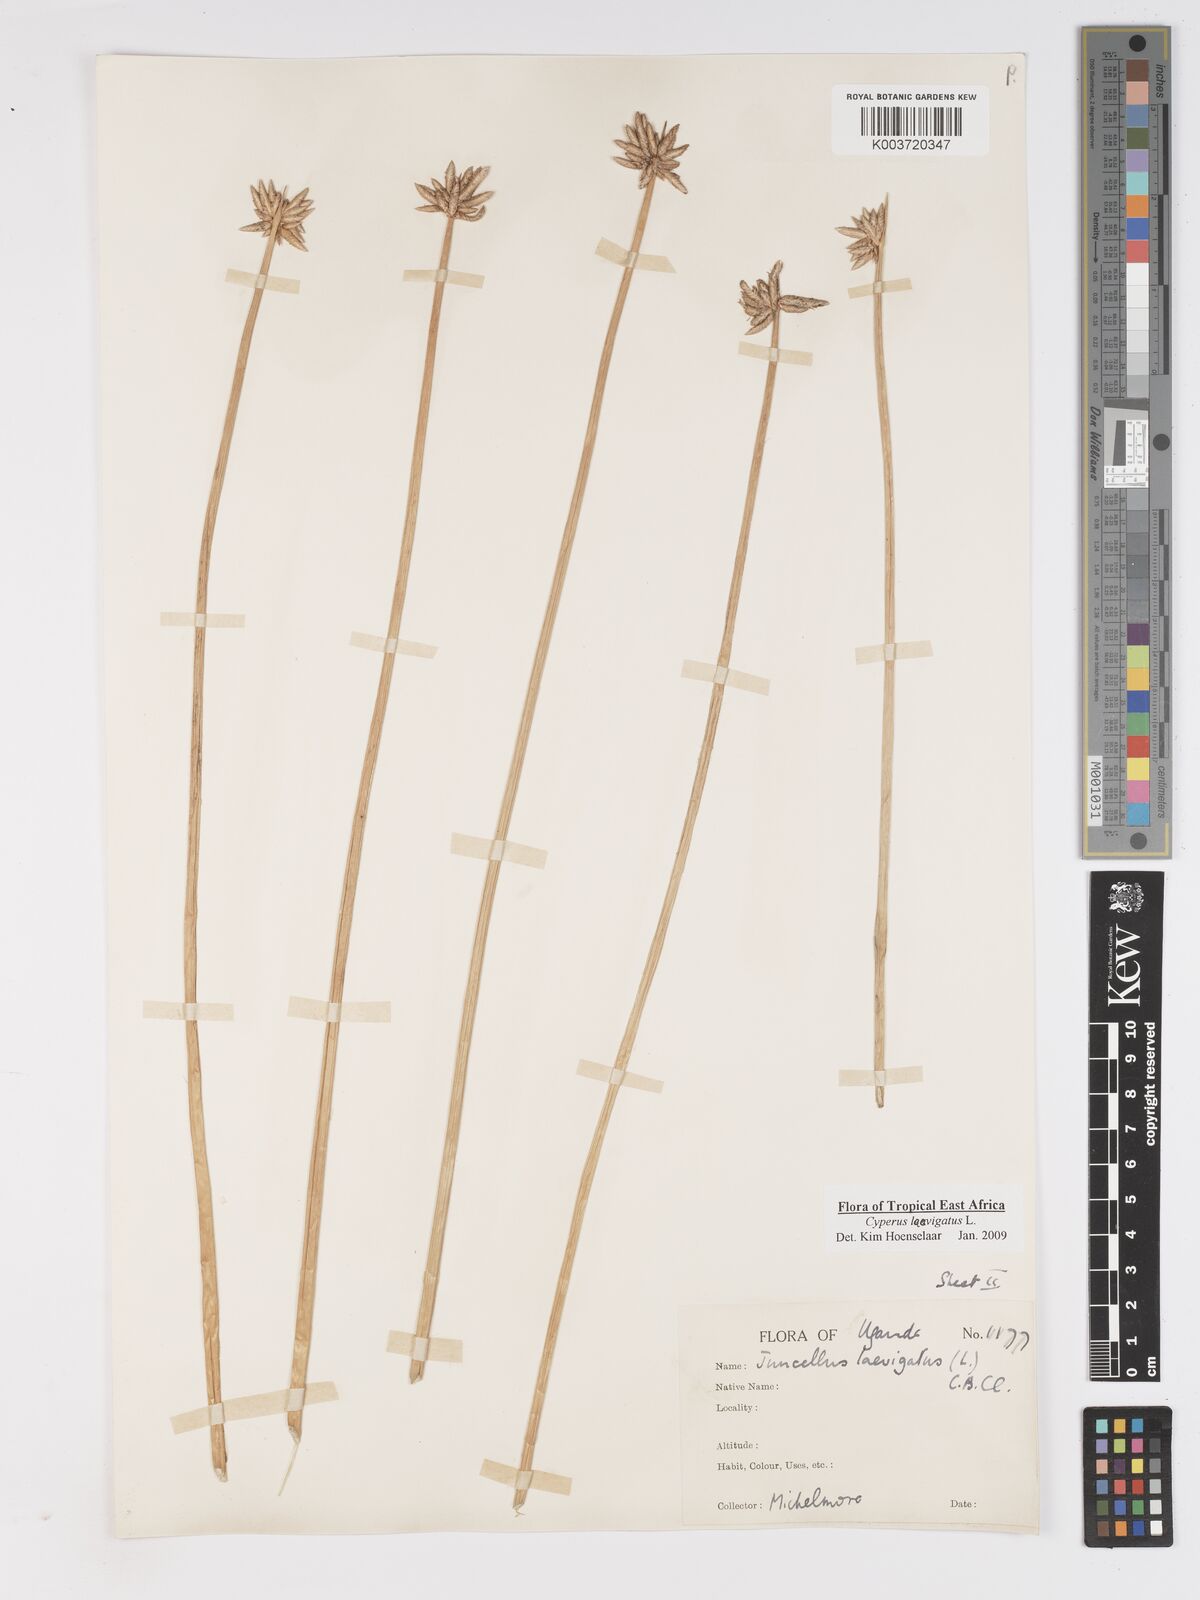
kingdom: Plantae
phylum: Tracheophyta
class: Liliopsida
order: Poales
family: Cyperaceae
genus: Cyperus
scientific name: Cyperus laevigatus
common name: Smooth flat sedge
